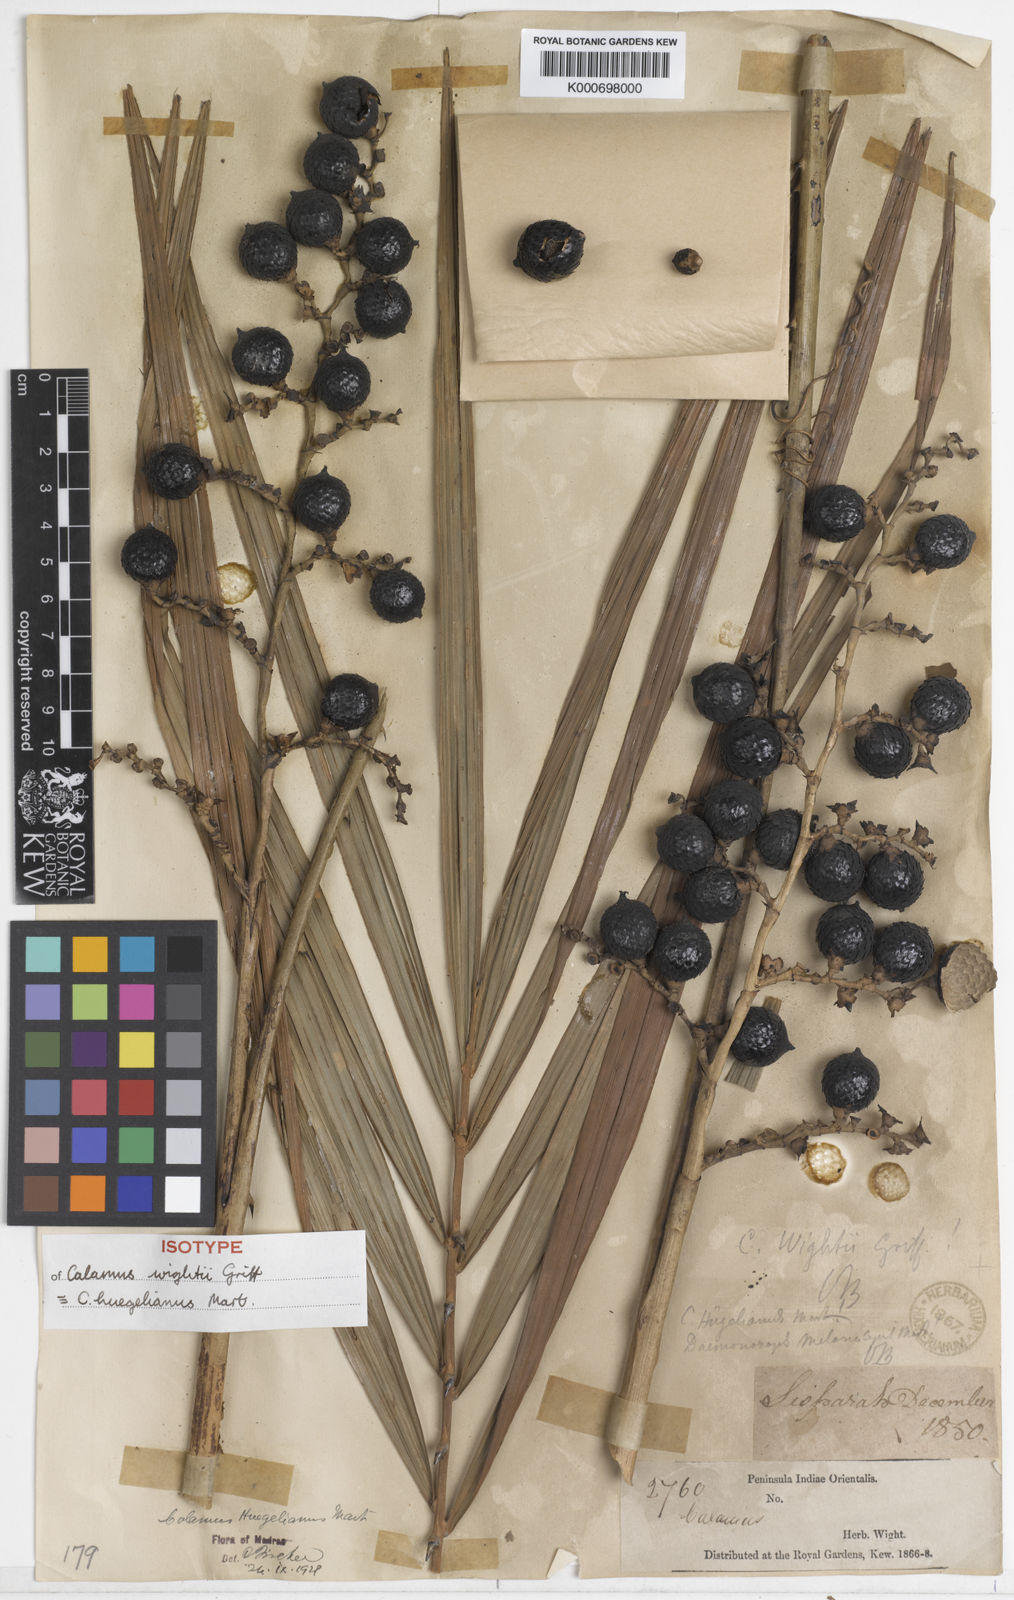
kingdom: Plantae
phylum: Tracheophyta
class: Liliopsida
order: Arecales
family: Arecaceae
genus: Calamus
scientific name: Calamus wightii
